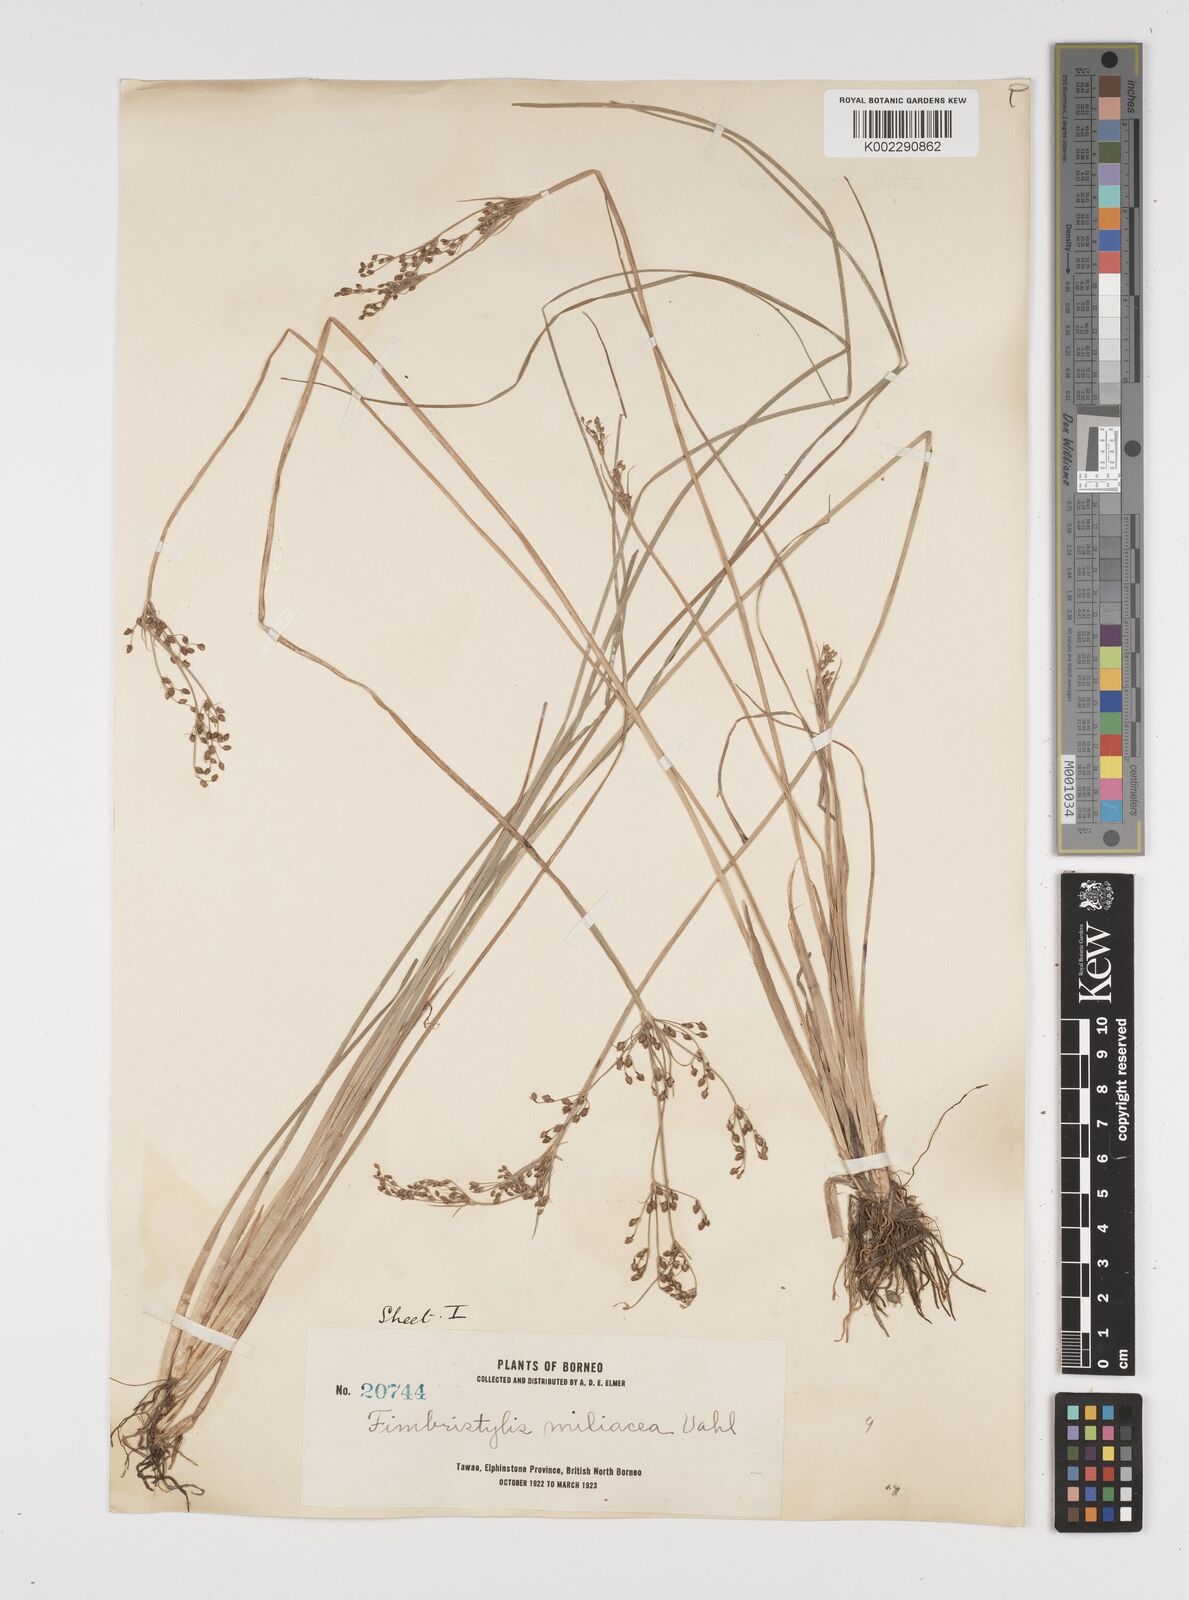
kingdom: Plantae
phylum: Tracheophyta
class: Liliopsida
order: Poales
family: Cyperaceae
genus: Fimbristylis
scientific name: Fimbristylis littoralis
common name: Fimbry
